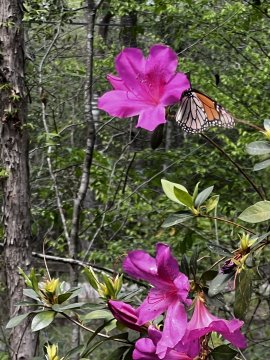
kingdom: Animalia
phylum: Arthropoda
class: Insecta
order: Lepidoptera
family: Nymphalidae
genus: Danaus
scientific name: Danaus plexippus
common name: Monarch
